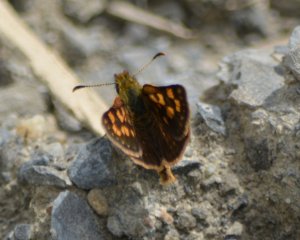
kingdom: Animalia
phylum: Arthropoda
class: Insecta
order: Lepidoptera
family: Hesperiidae
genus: Carterocephalus
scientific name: Carterocephalus palaemon
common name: Chequered Skipper
